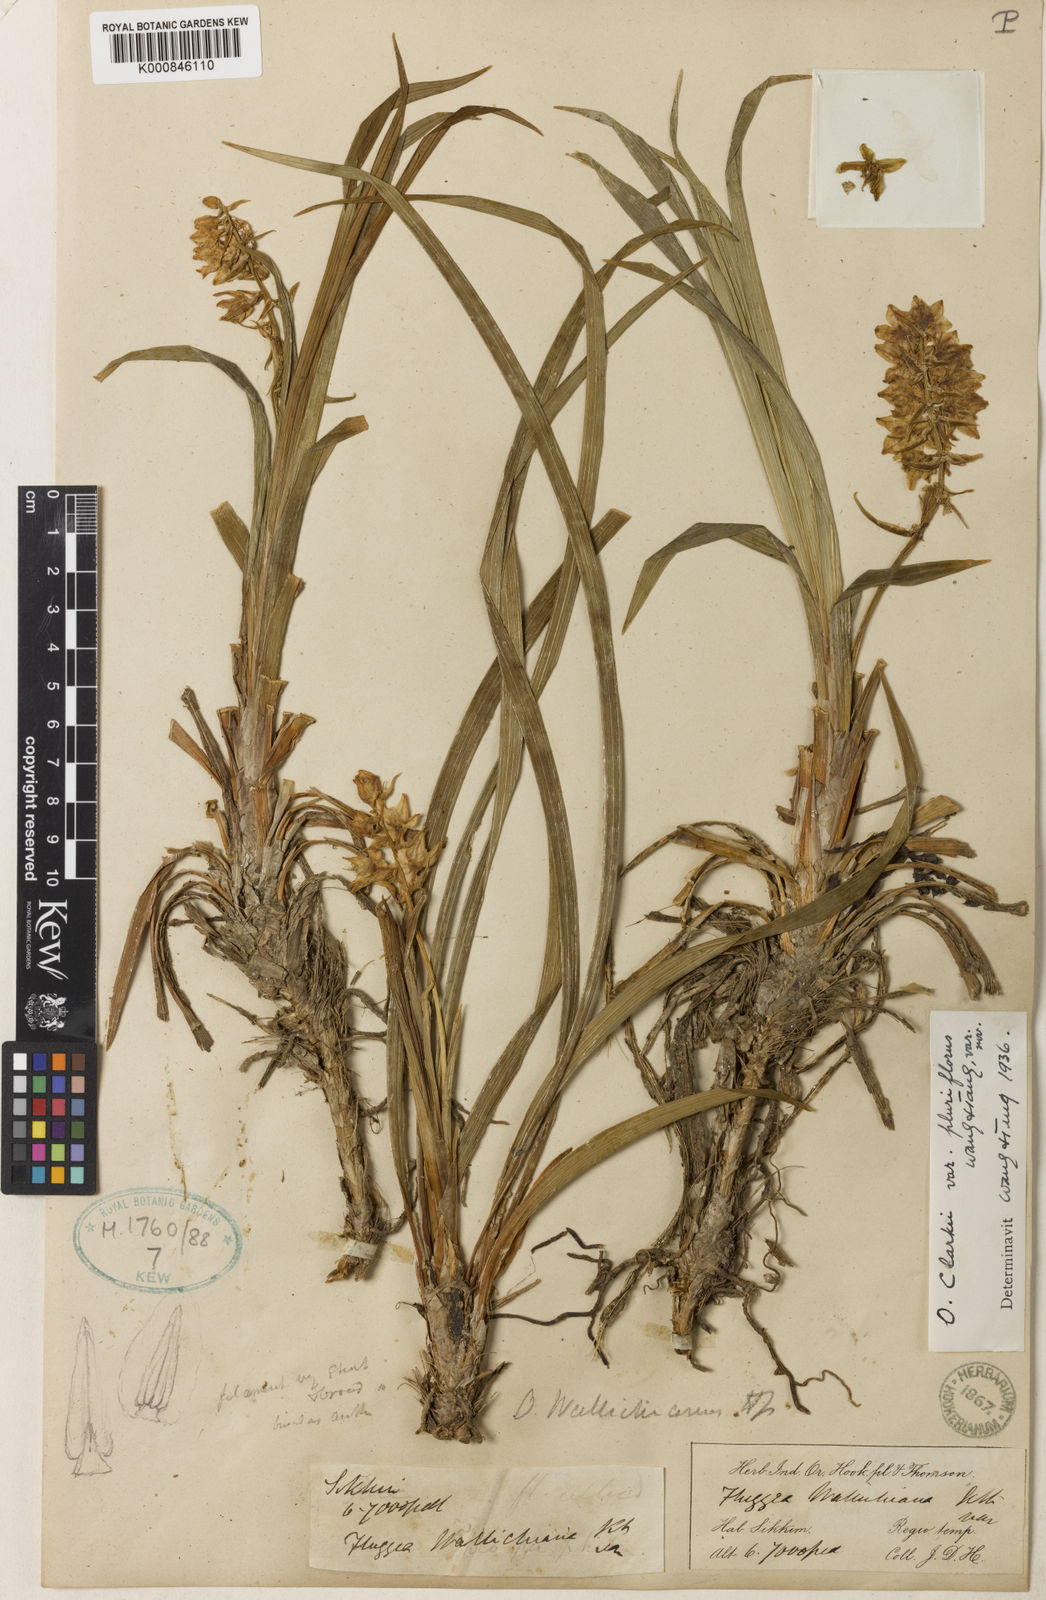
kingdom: Plantae
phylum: Tracheophyta
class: Liliopsida
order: Asparagales
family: Asparagaceae
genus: Ophiopogon
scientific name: Ophiopogon clarkei
